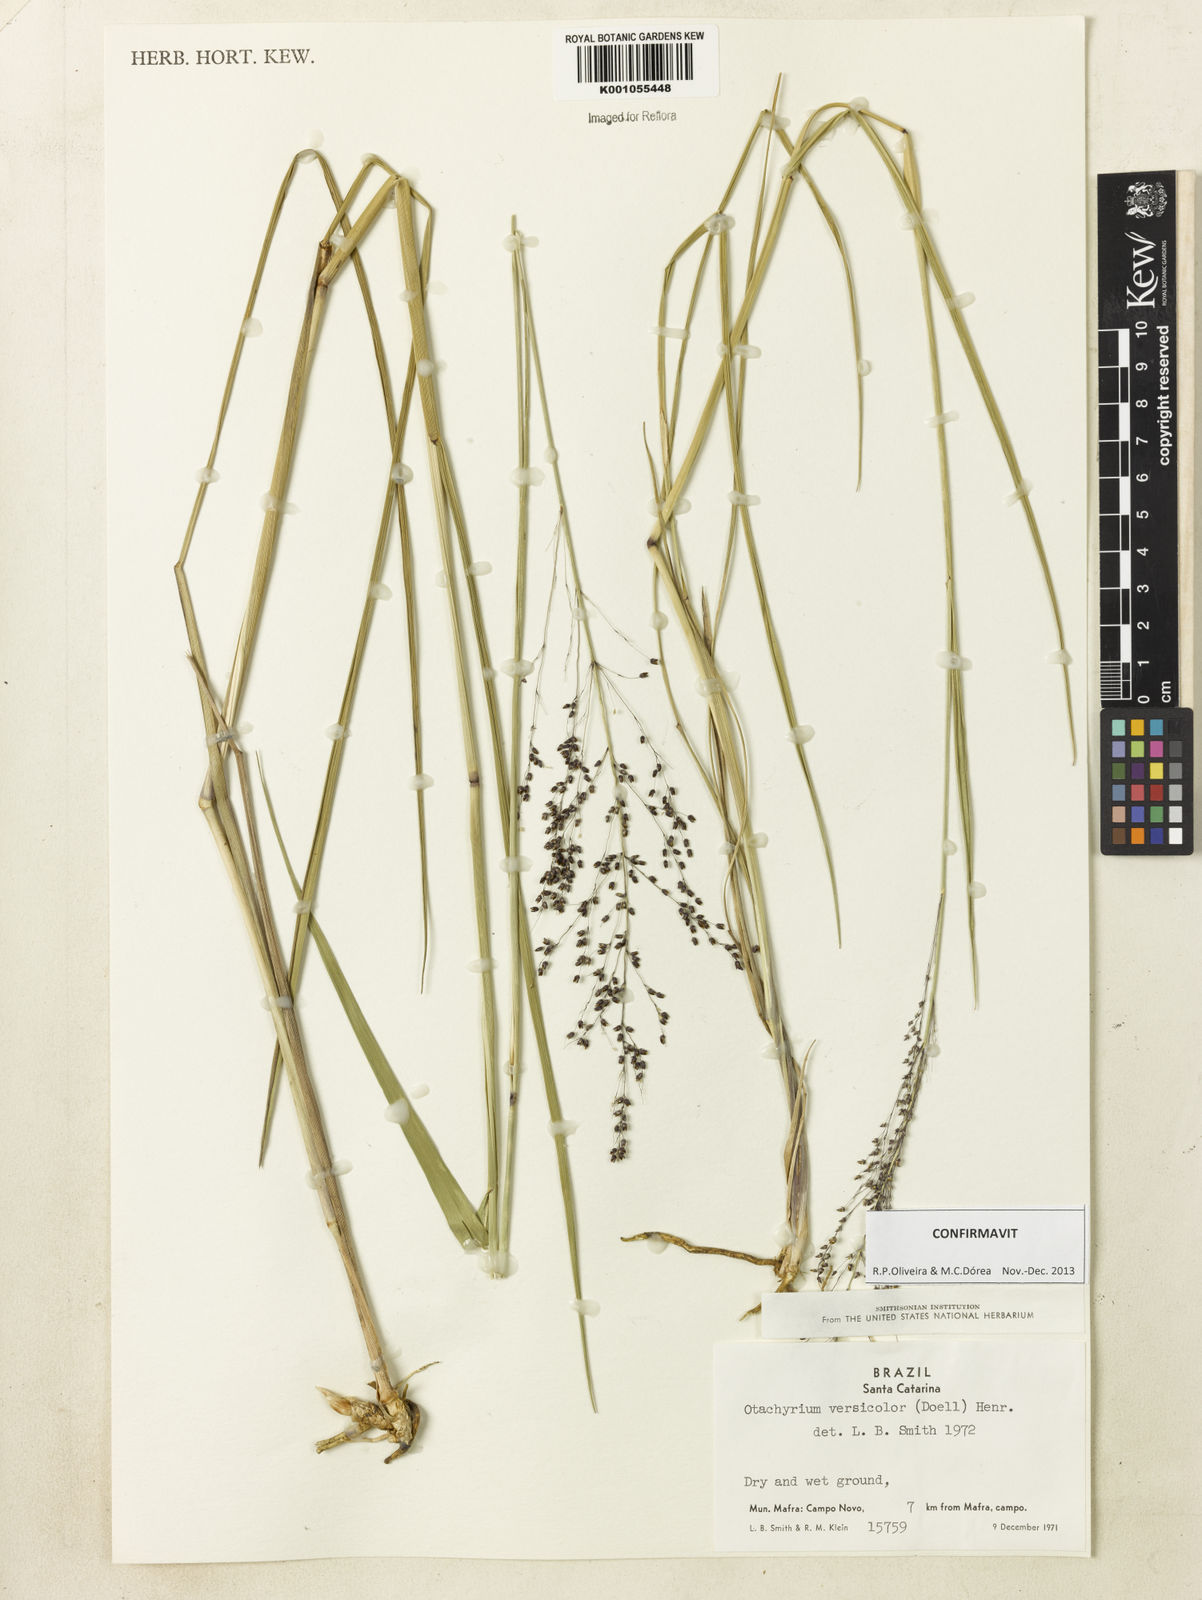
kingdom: Plantae
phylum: Tracheophyta
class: Liliopsida
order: Poales
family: Poaceae
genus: Otachyrium
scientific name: Otachyrium
